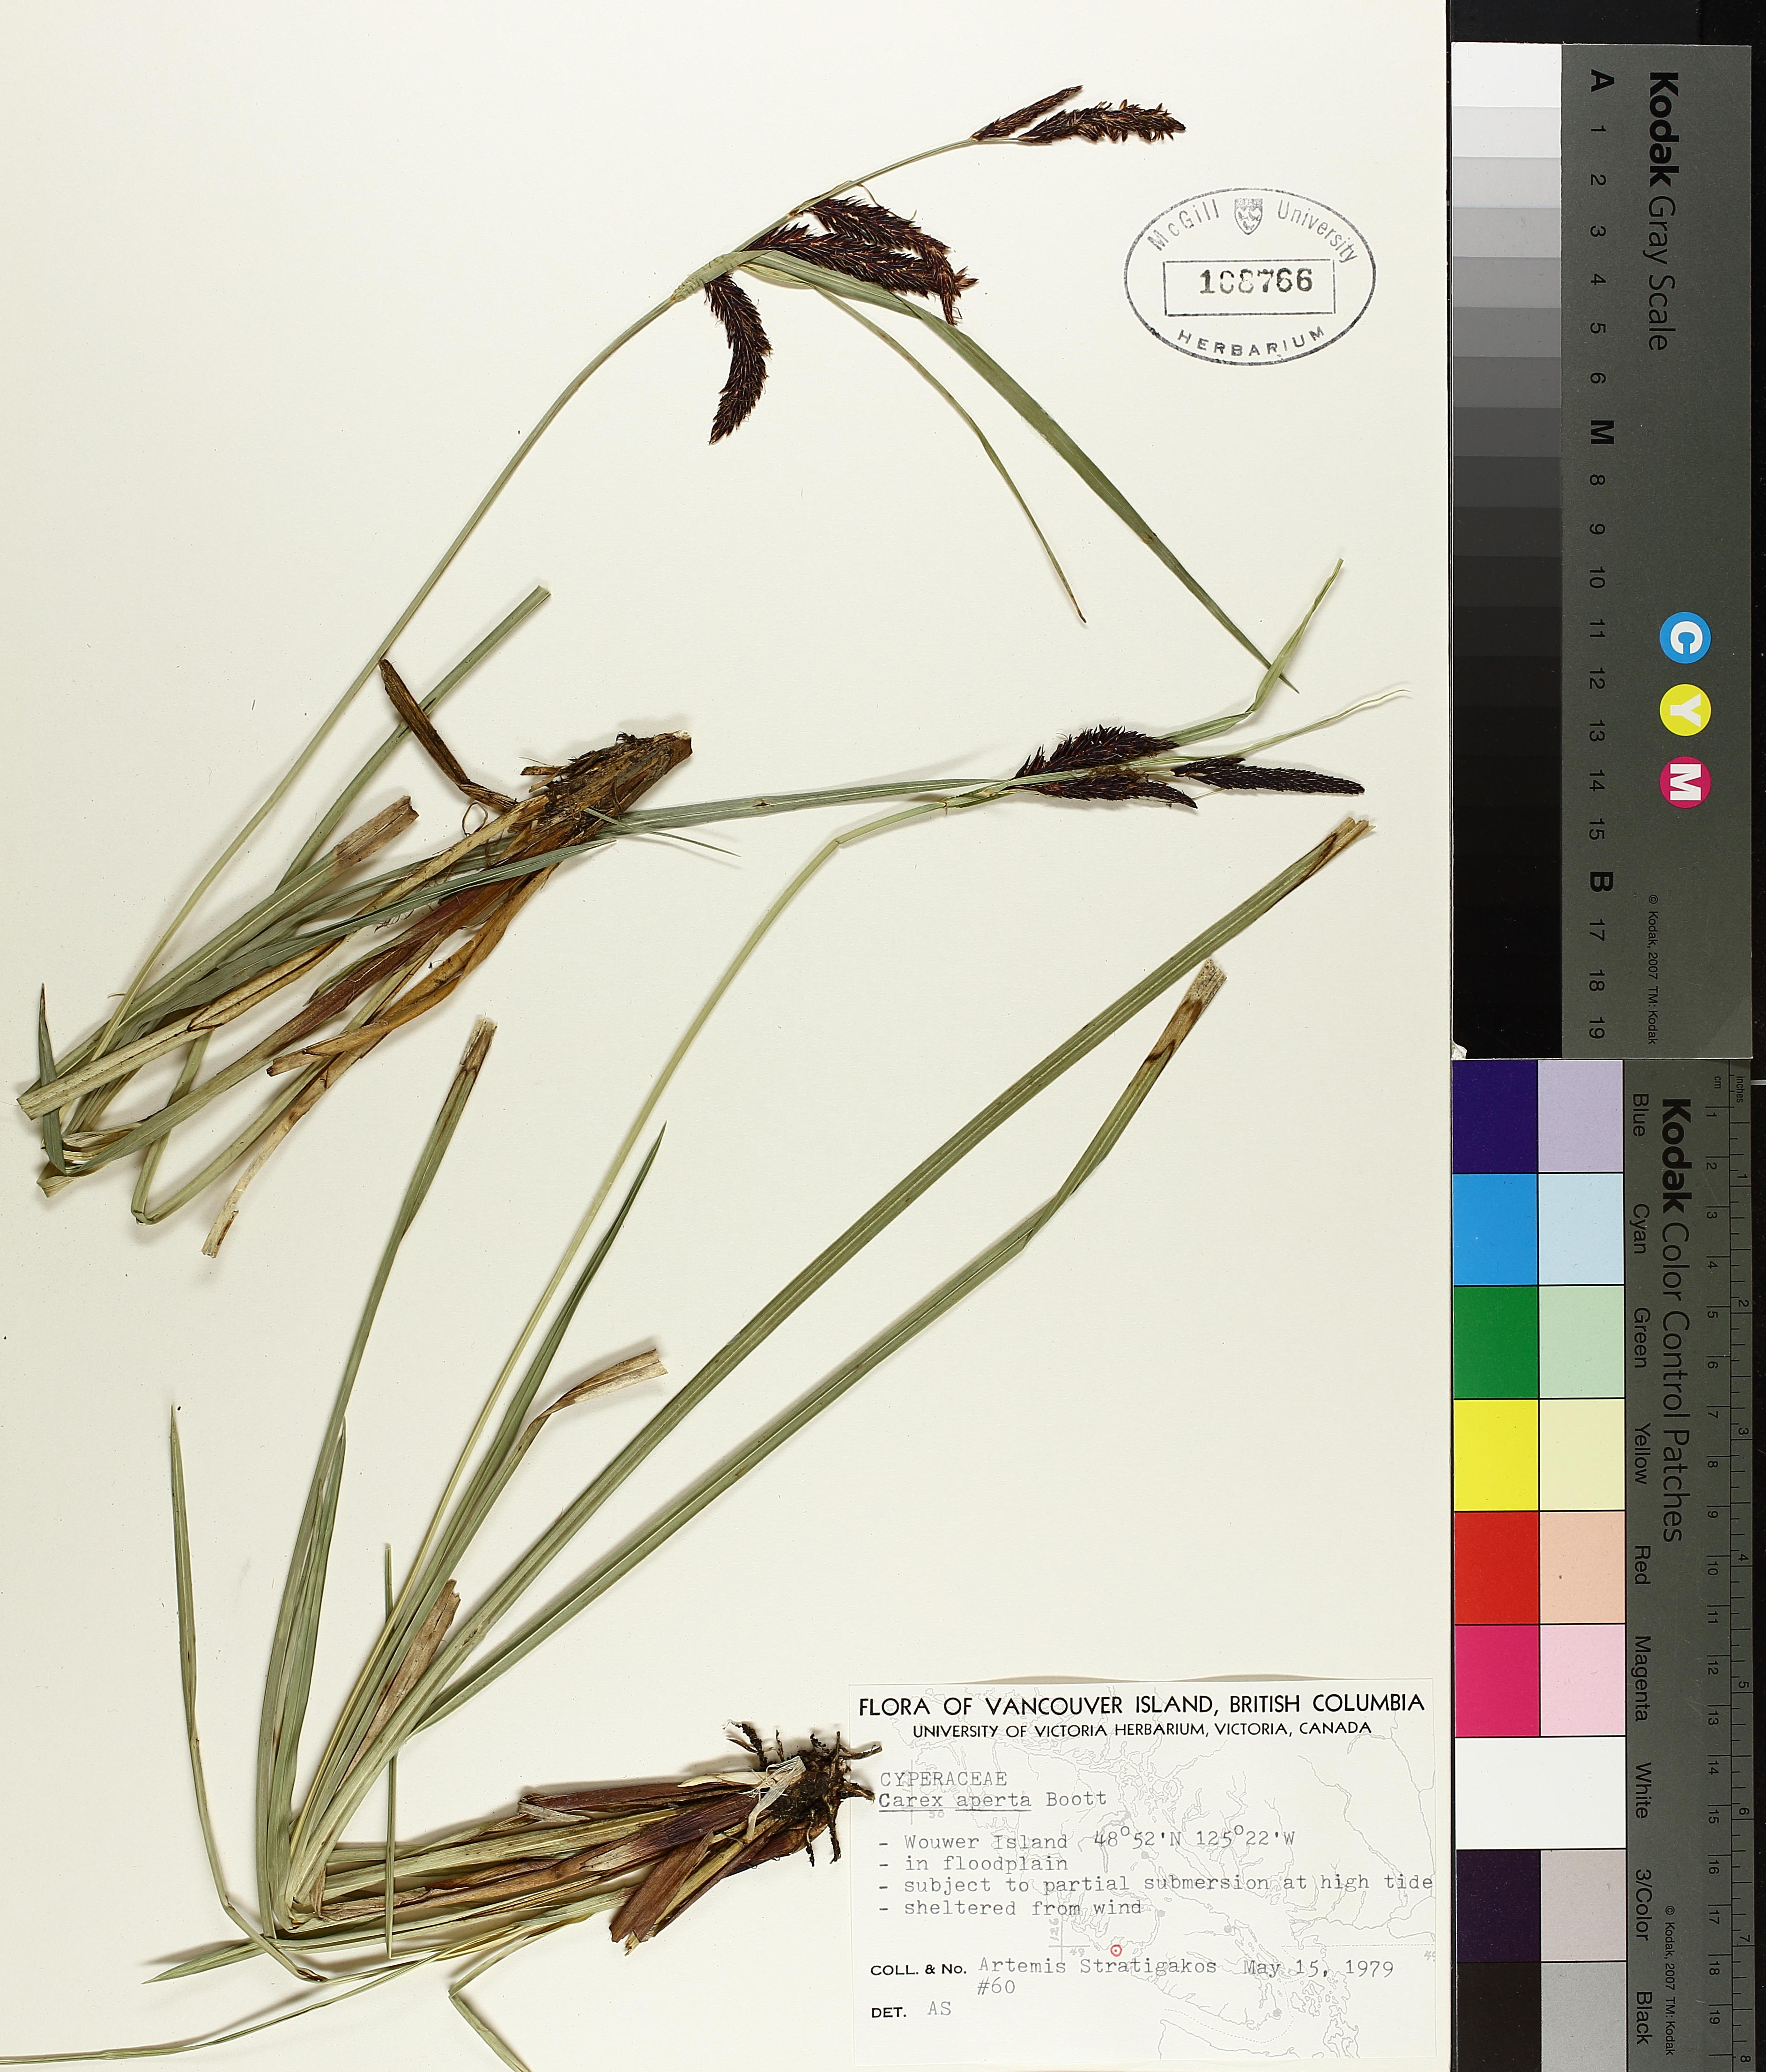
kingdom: Plantae
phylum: Tracheophyta
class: Liliopsida
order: Poales
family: Cyperaceae
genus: Carex
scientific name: Carex aperta
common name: Columbia sedge
